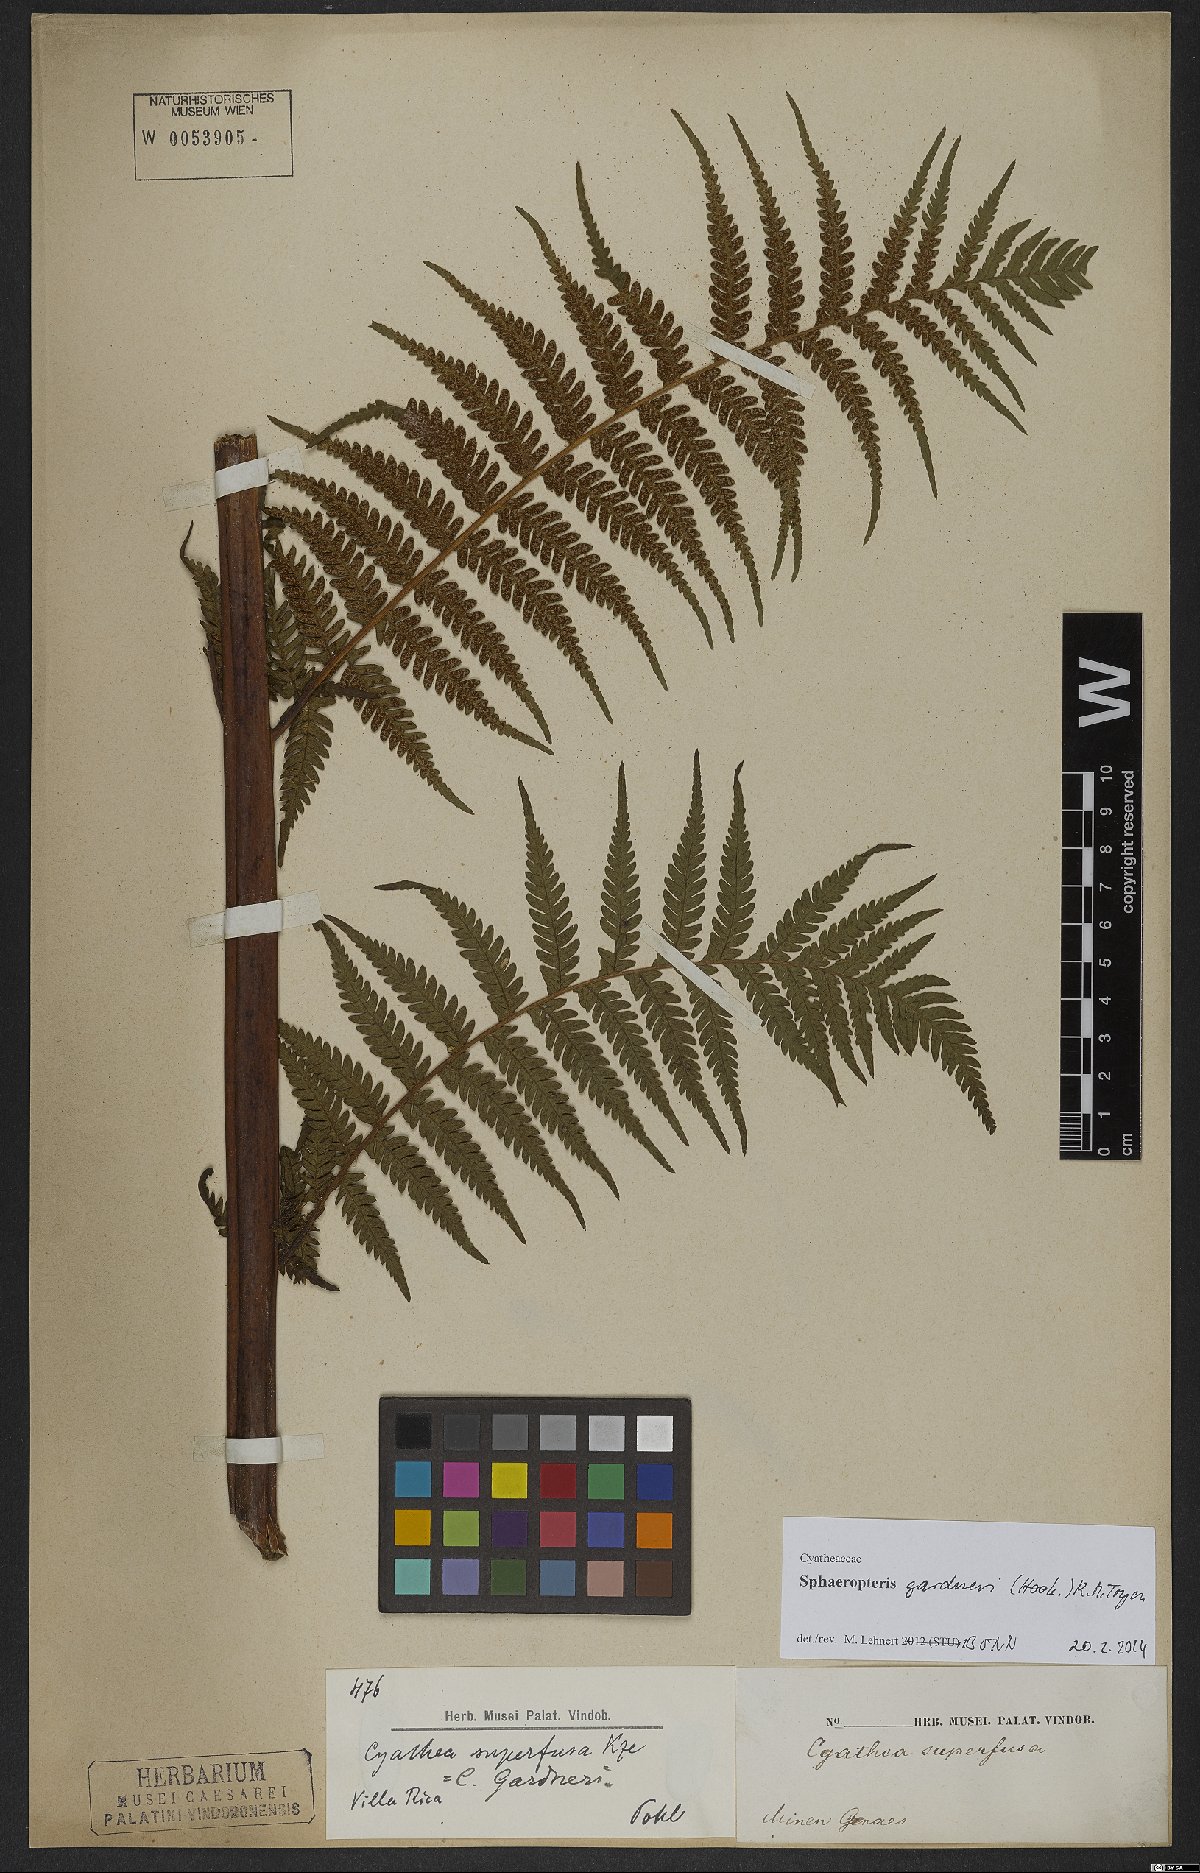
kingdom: Plantae
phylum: Tracheophyta
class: Polypodiopsida
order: Cyatheales
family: Cyatheaceae
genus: Sphaeropteris
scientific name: Sphaeropteris gardneri
